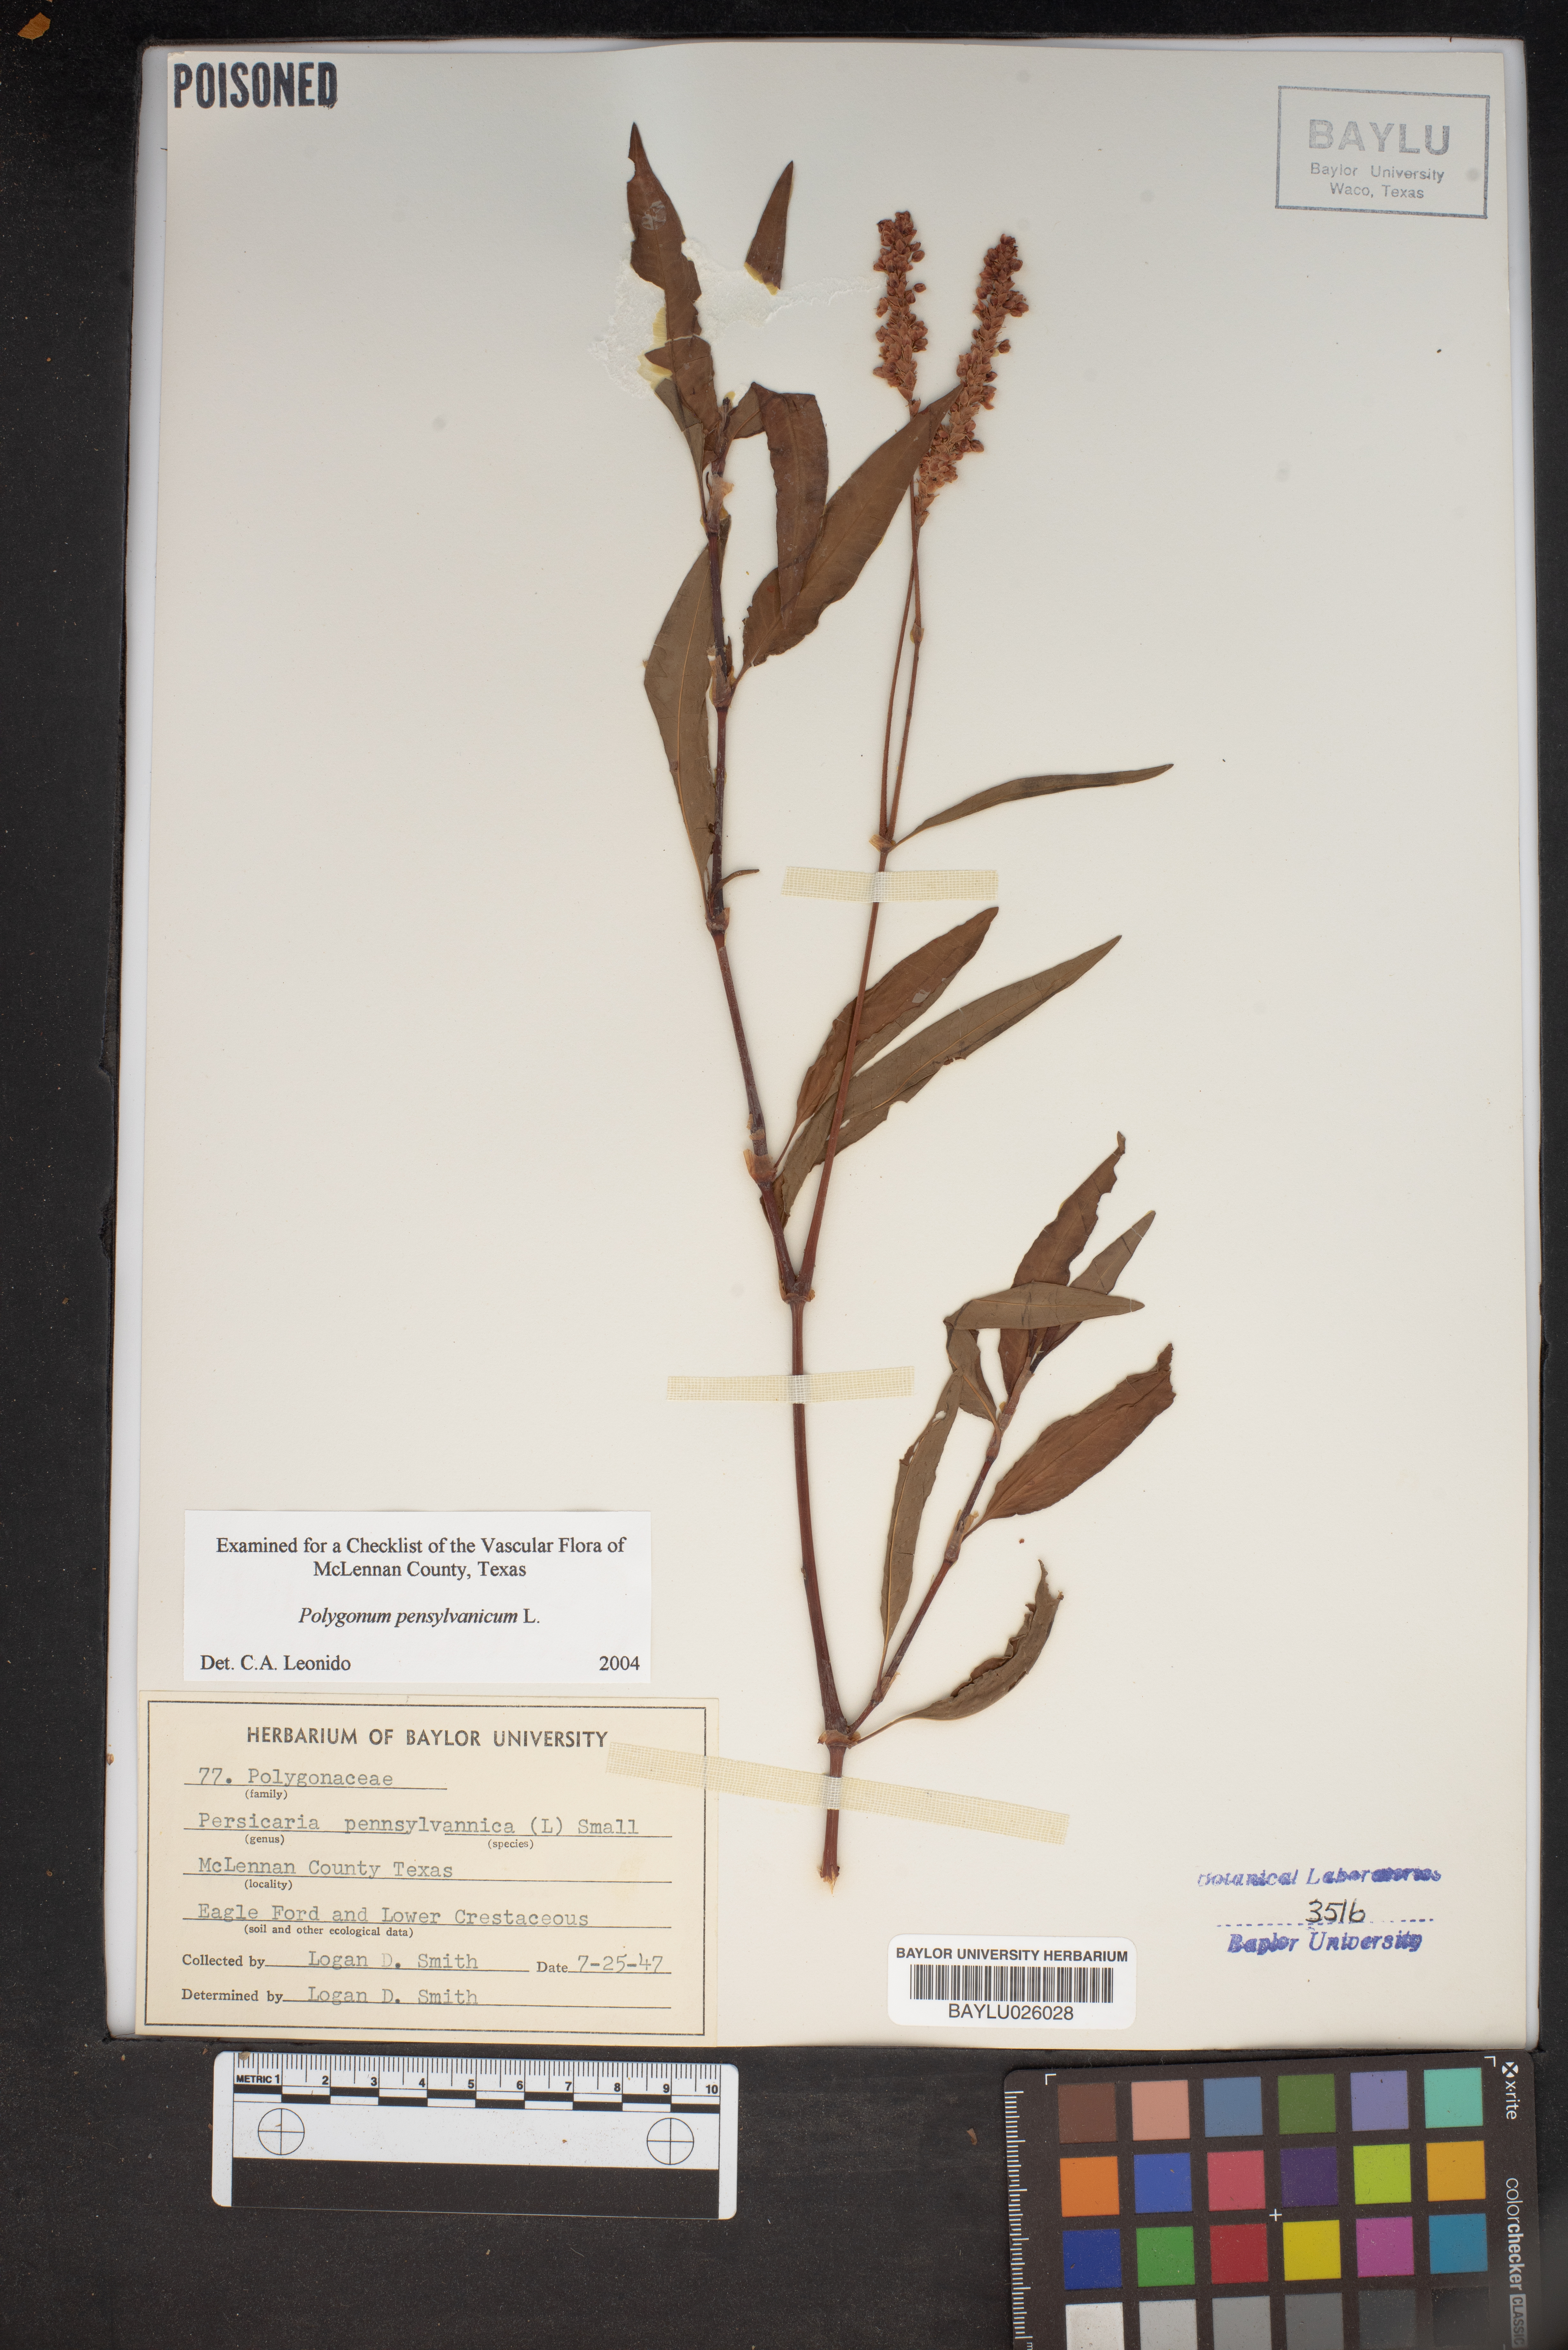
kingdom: Plantae
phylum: Tracheophyta
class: Magnoliopsida
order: Caryophyllales
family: Polygonaceae
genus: Persicaria
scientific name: Persicaria pensylvanica
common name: Pinkweed
